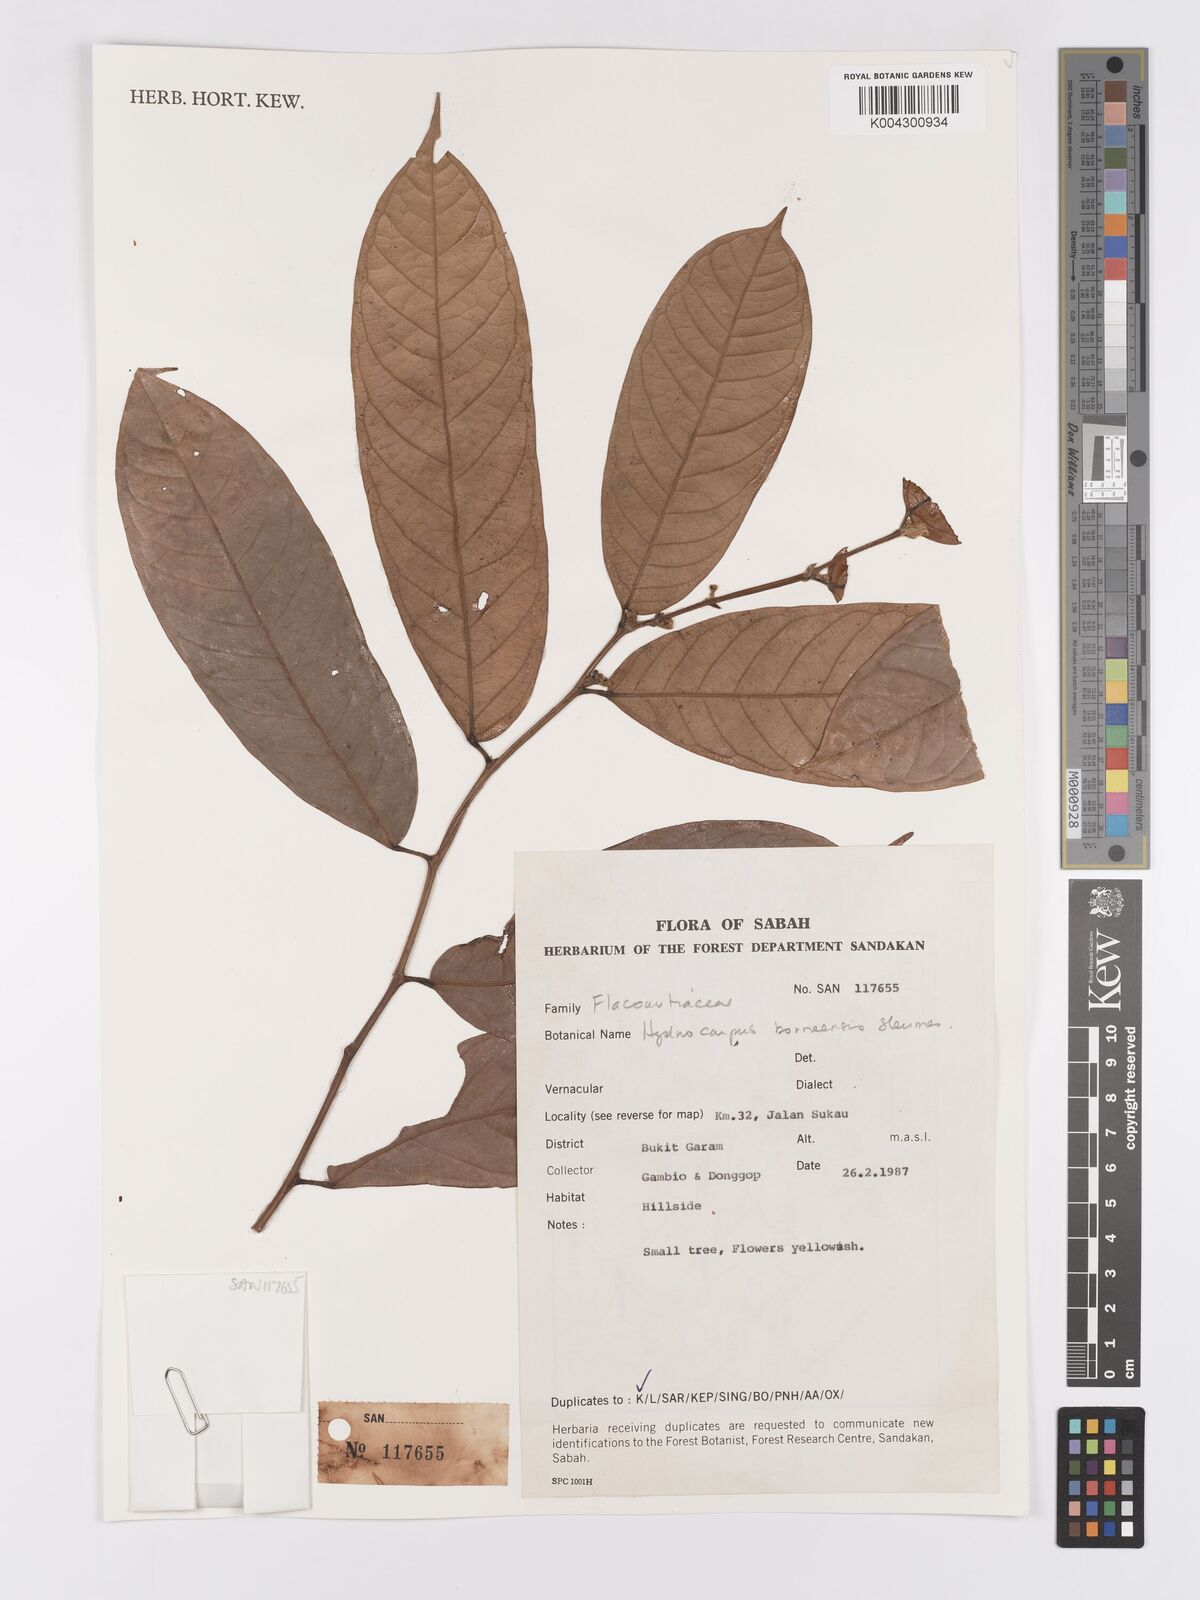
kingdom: Plantae
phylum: Tracheophyta
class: Magnoliopsida
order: Malpighiales
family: Achariaceae
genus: Hydnocarpus
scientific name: Hydnocarpus borneensis
